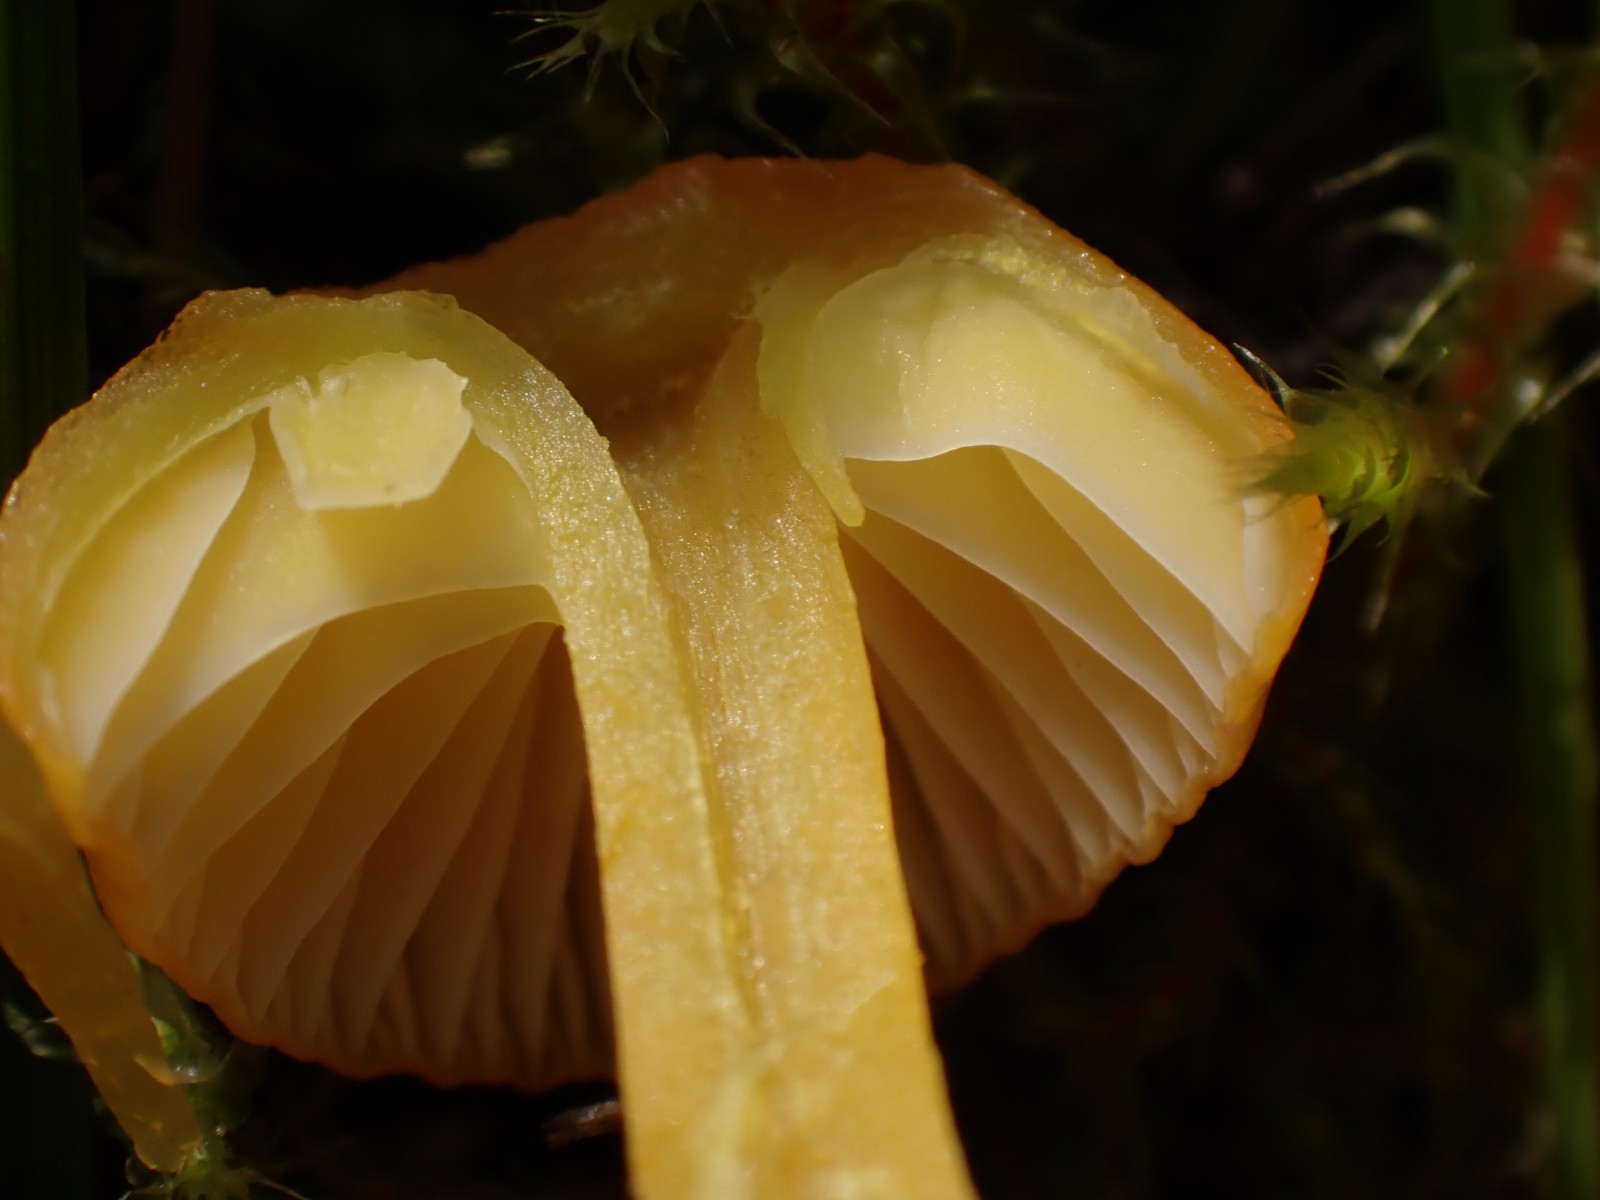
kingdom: Fungi
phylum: Basidiomycota
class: Agaricomycetes
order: Agaricales
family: Hygrophoraceae
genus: Hygrocybe
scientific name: Hygrocybe ceracea
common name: voksgul vokshat
